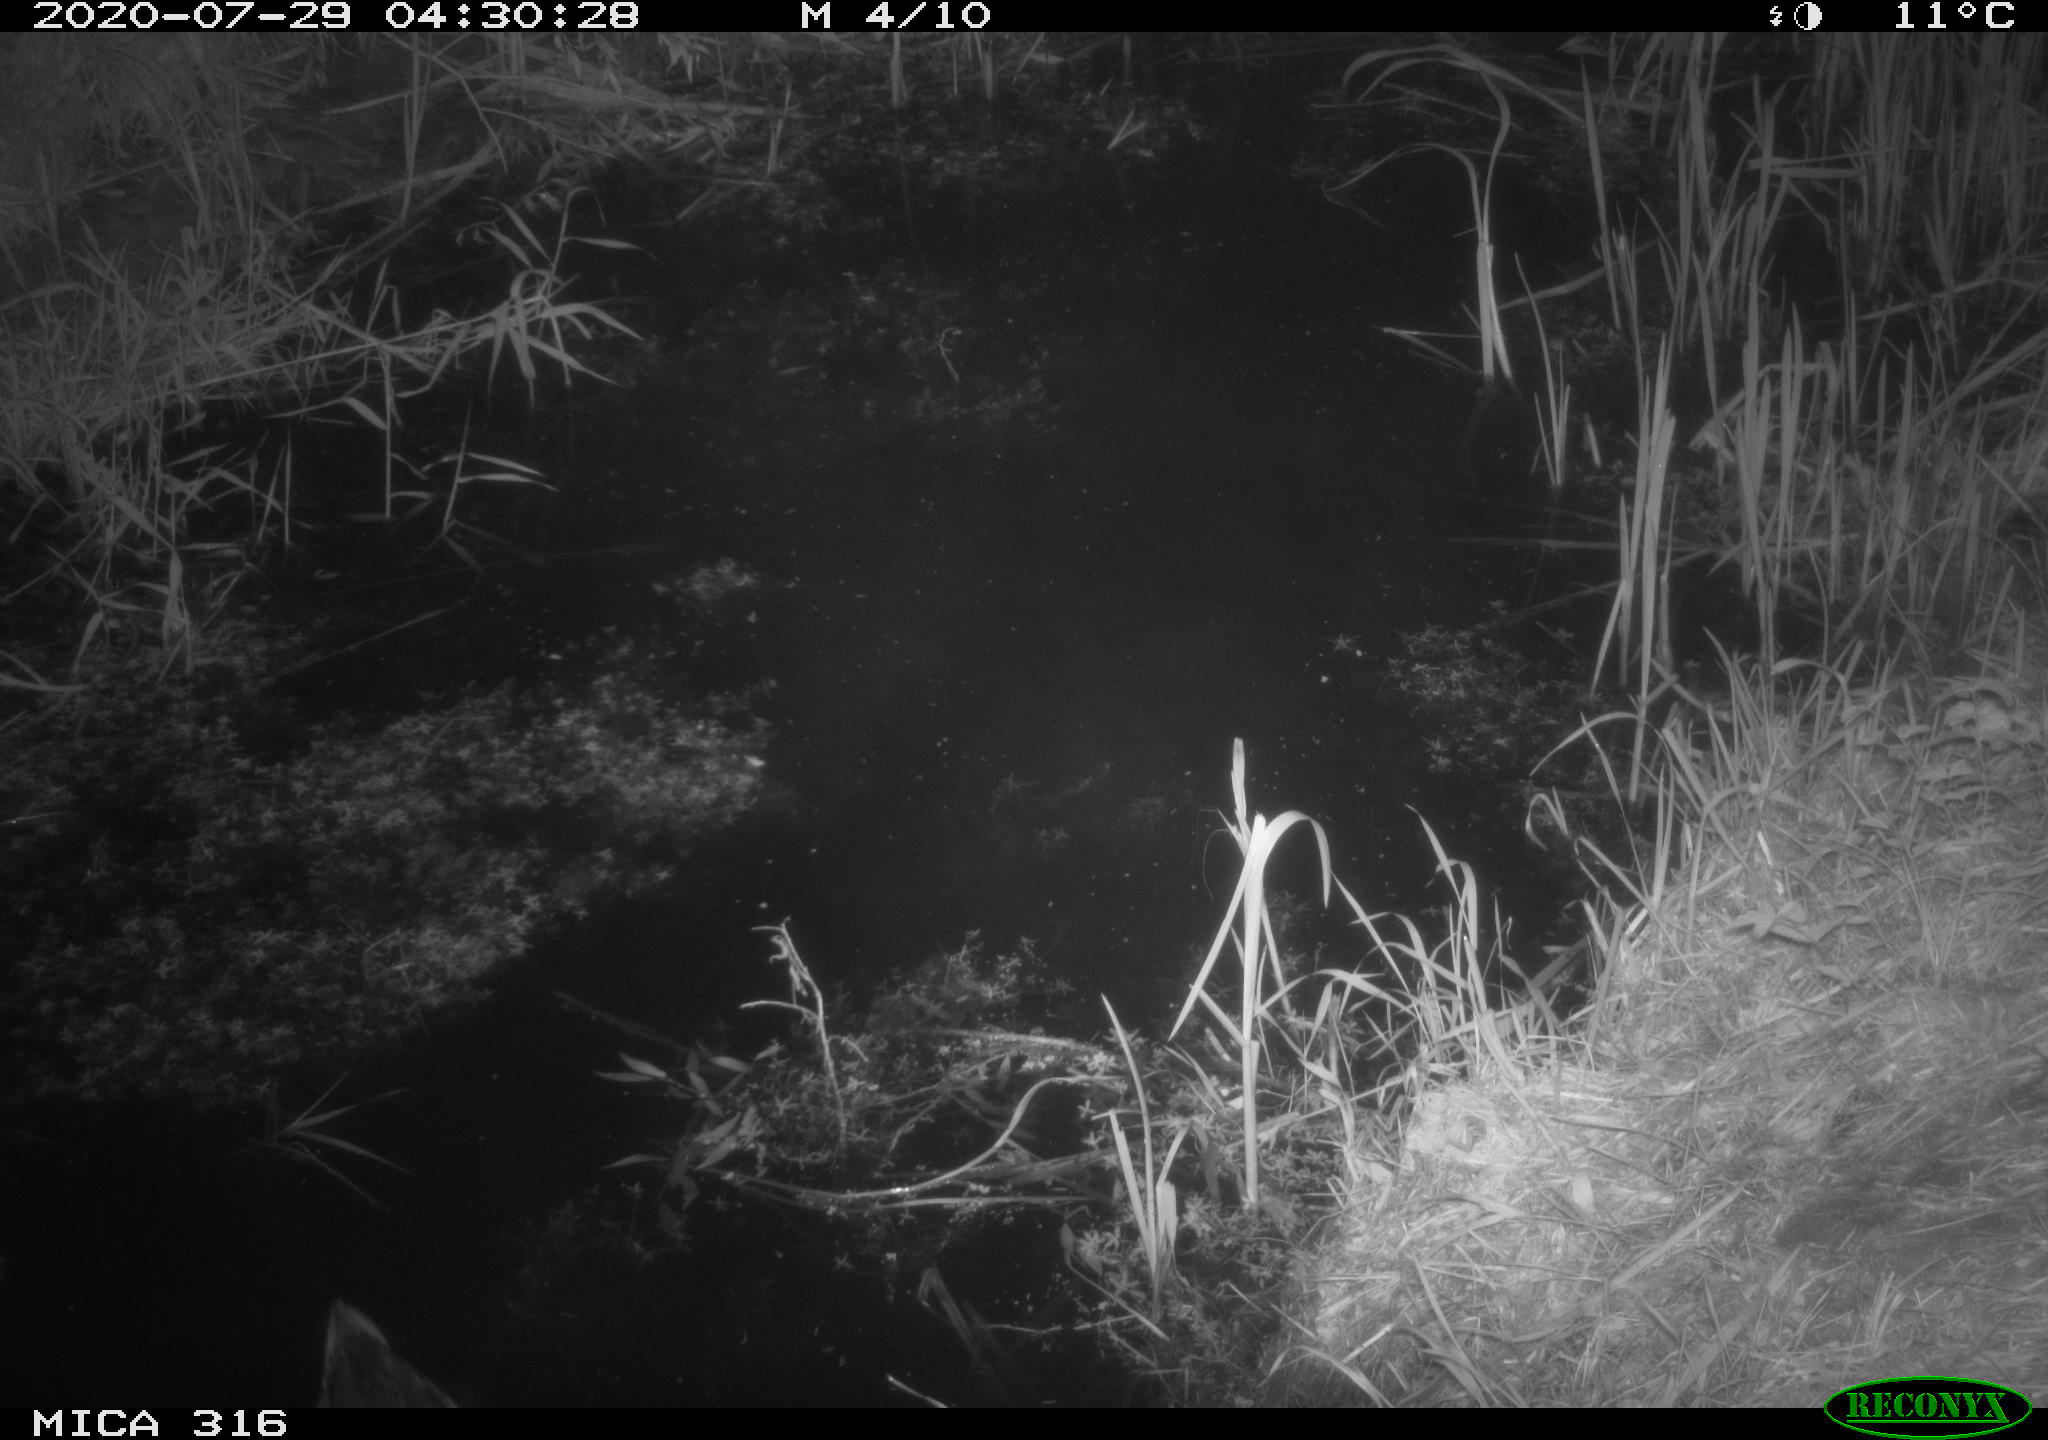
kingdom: Animalia
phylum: Chordata
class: Aves
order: Anseriformes
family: Anatidae
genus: Anas
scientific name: Anas platyrhynchos
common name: Mallard
